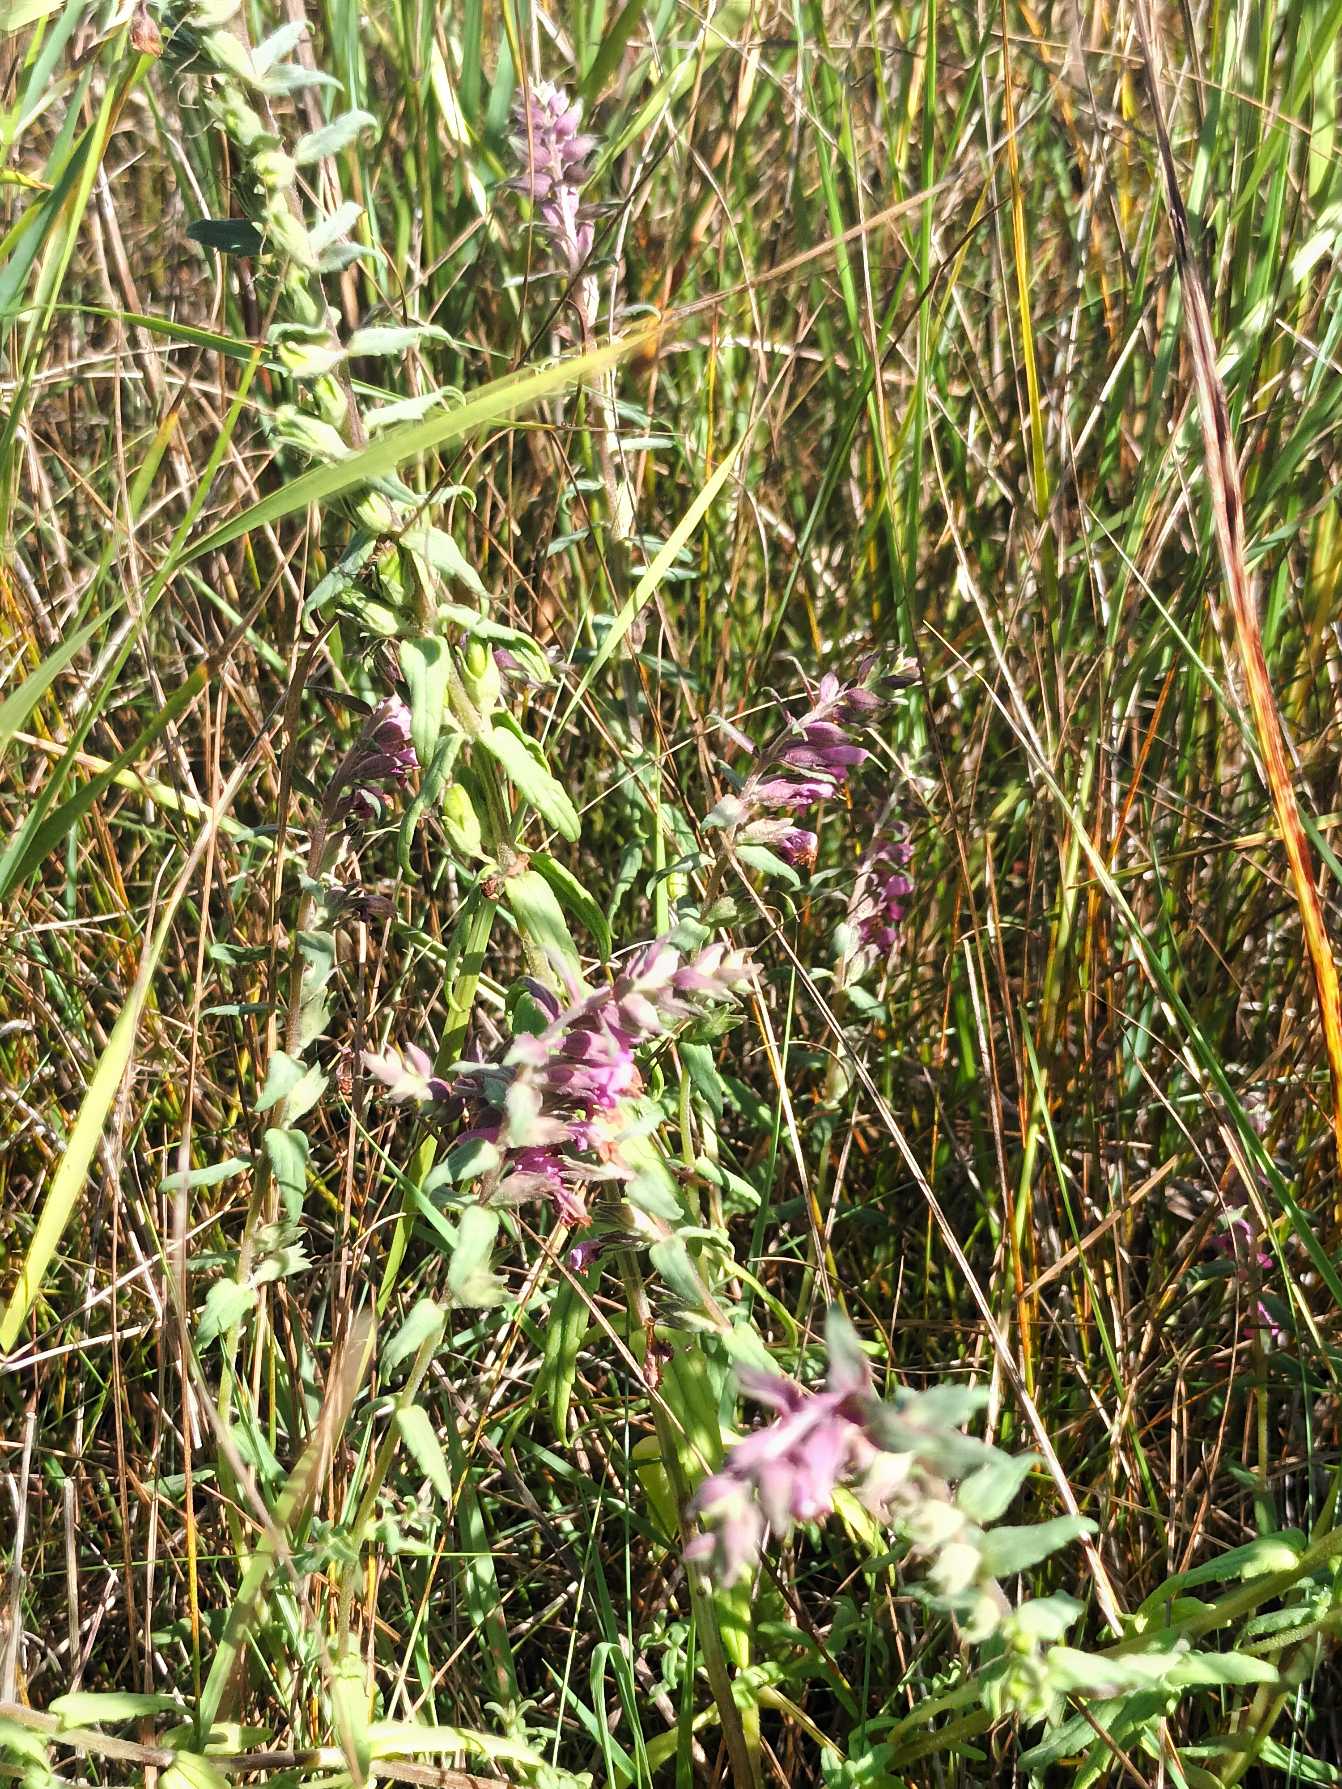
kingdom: Plantae
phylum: Tracheophyta
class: Magnoliopsida
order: Lamiales
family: Orobanchaceae
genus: Odontites
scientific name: Odontites vulgaris
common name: Høst-rødtop
